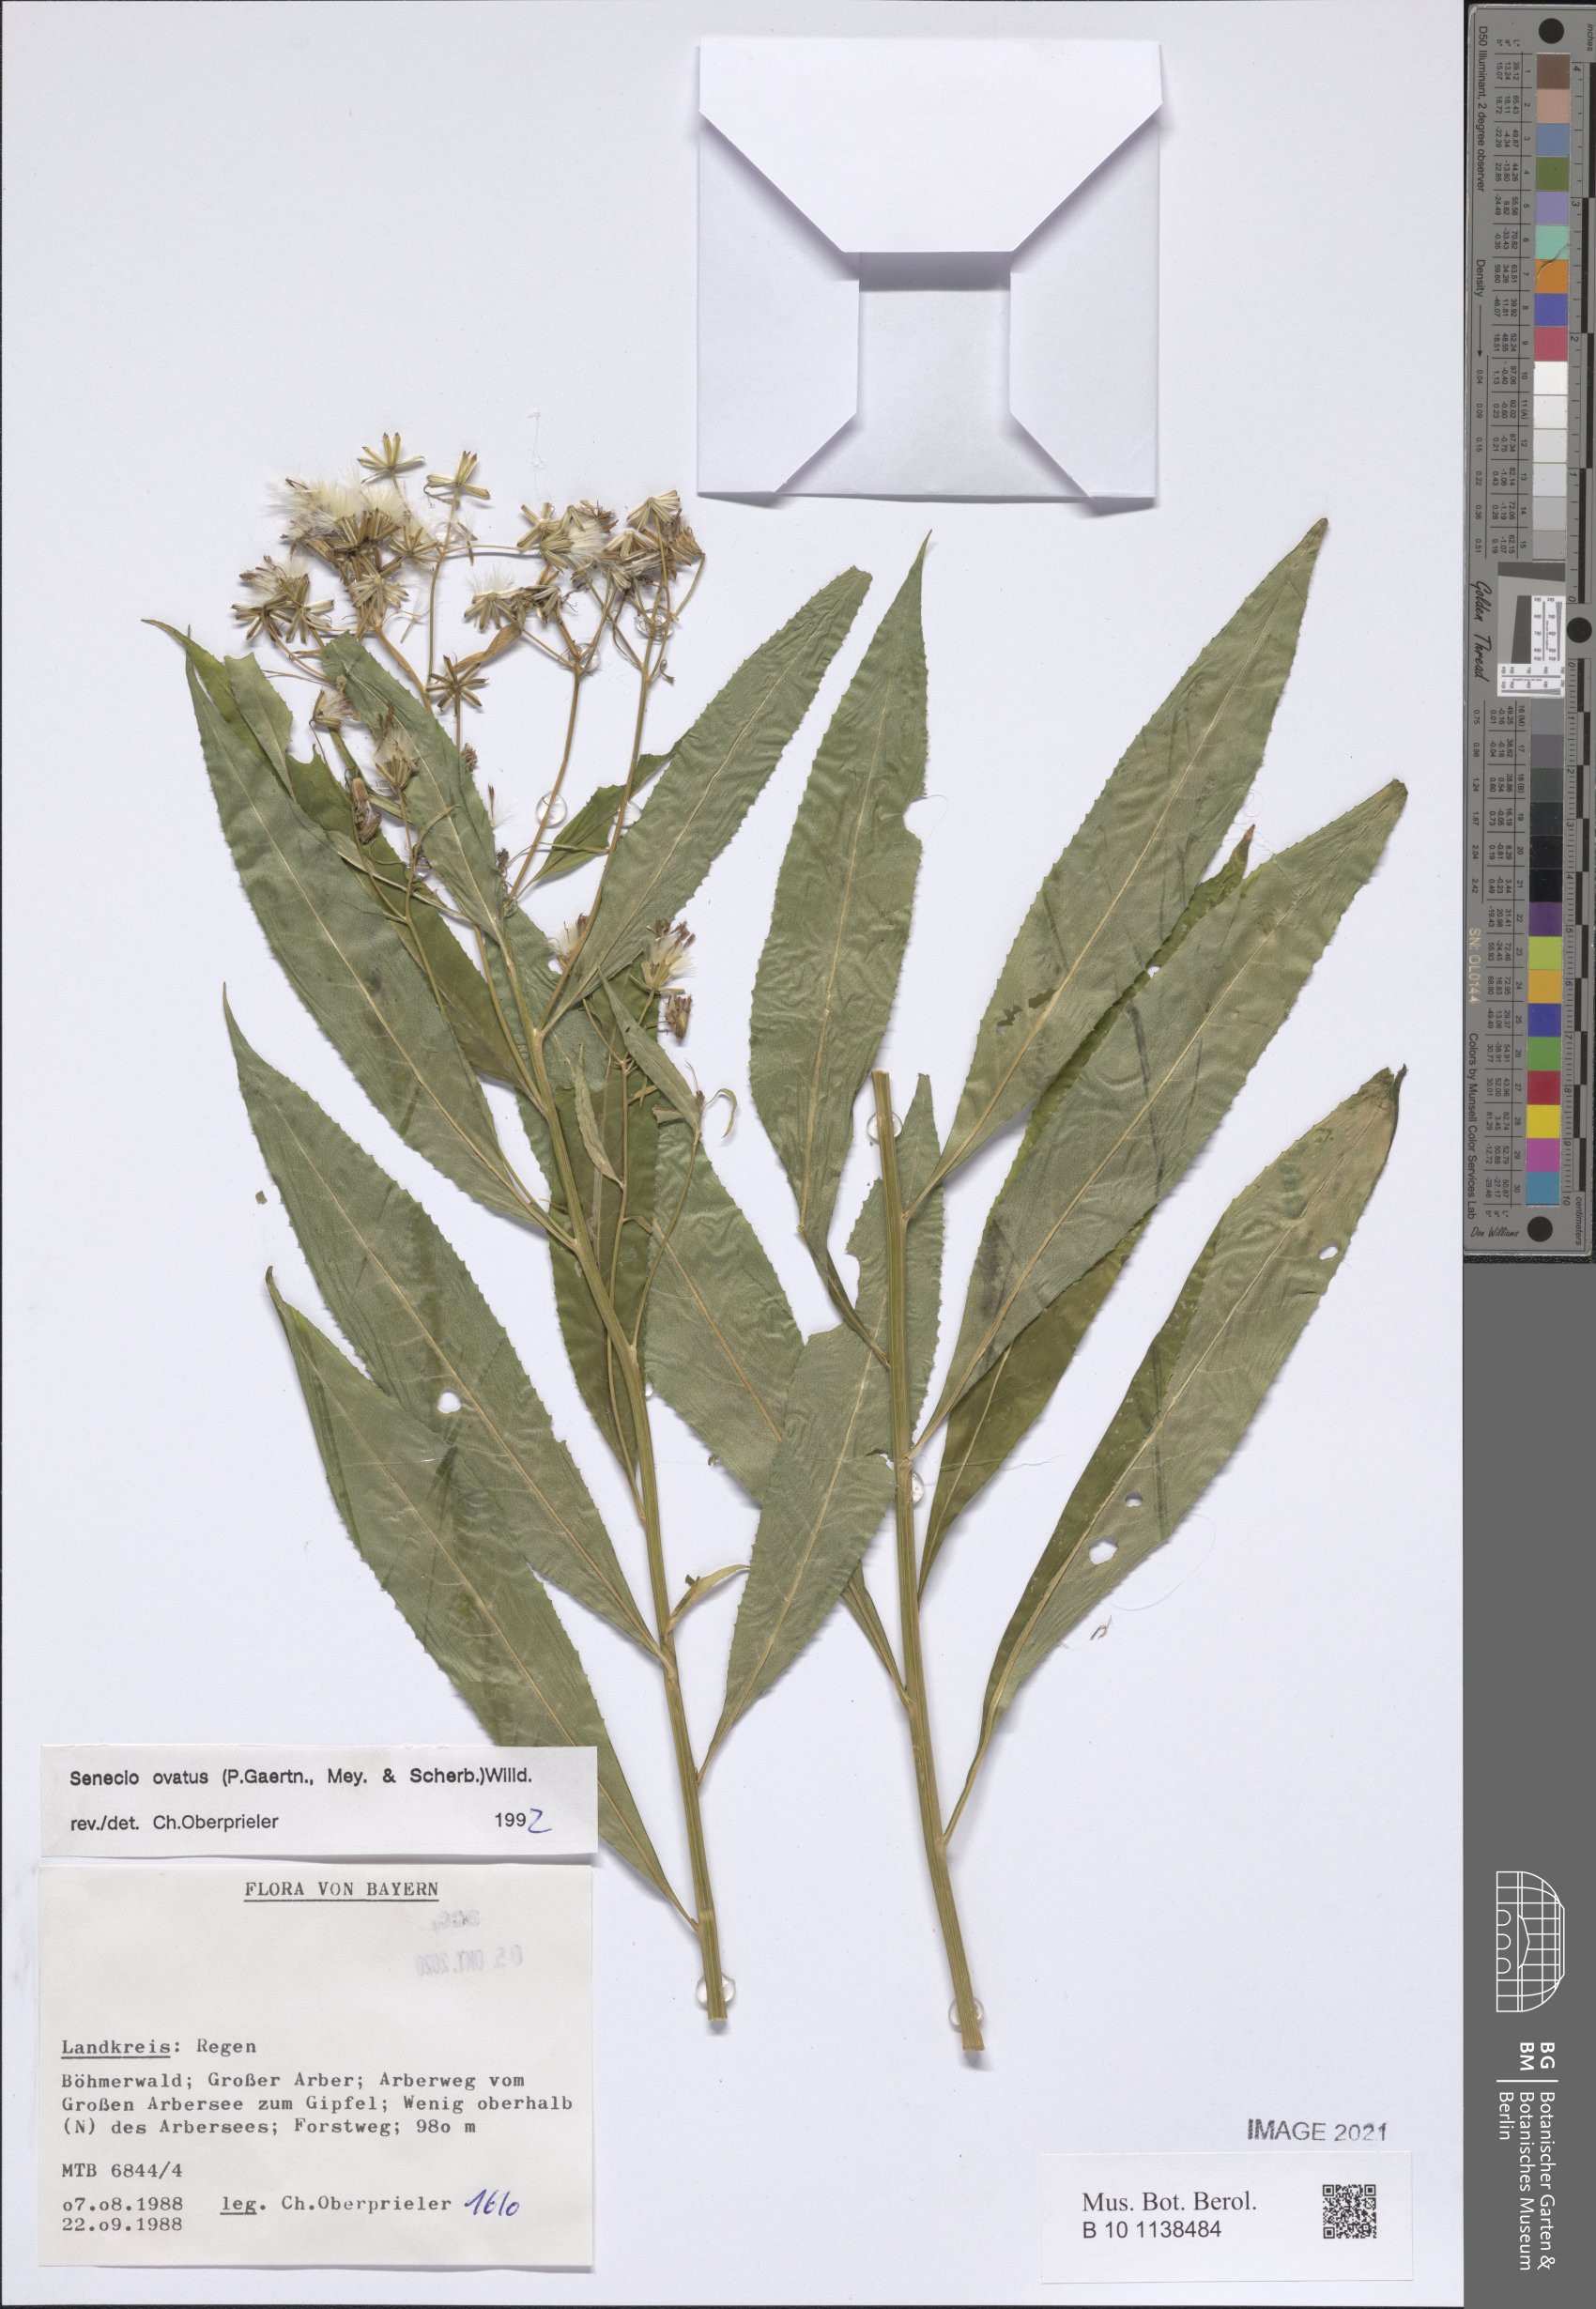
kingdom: Plantae
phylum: Tracheophyta
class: Magnoliopsida
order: Asterales
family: Asteraceae
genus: Senecio
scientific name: Senecio ovatus
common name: Wood ragwort
